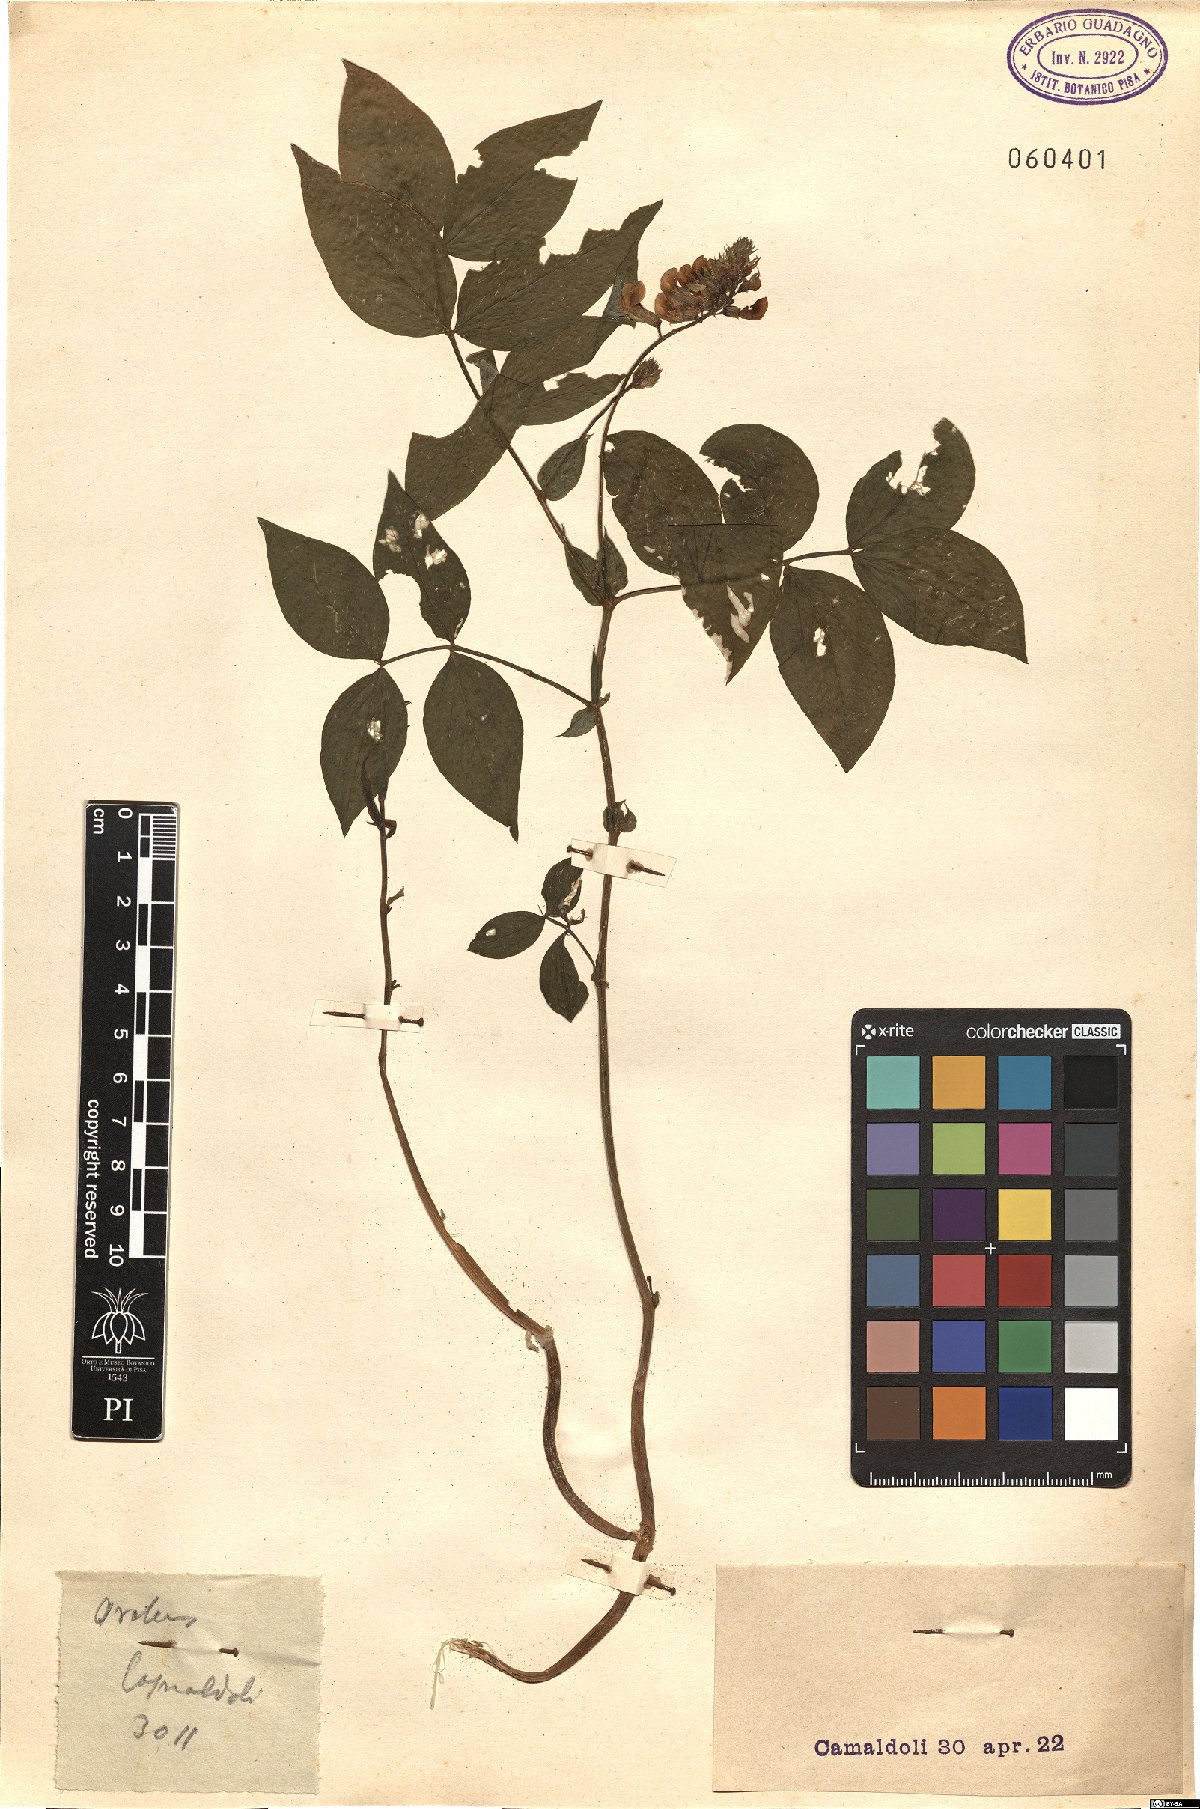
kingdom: Plantae
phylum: Tracheophyta
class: Magnoliopsida
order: Fabales
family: Fabaceae
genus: Lathyrus
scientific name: Lathyrus
